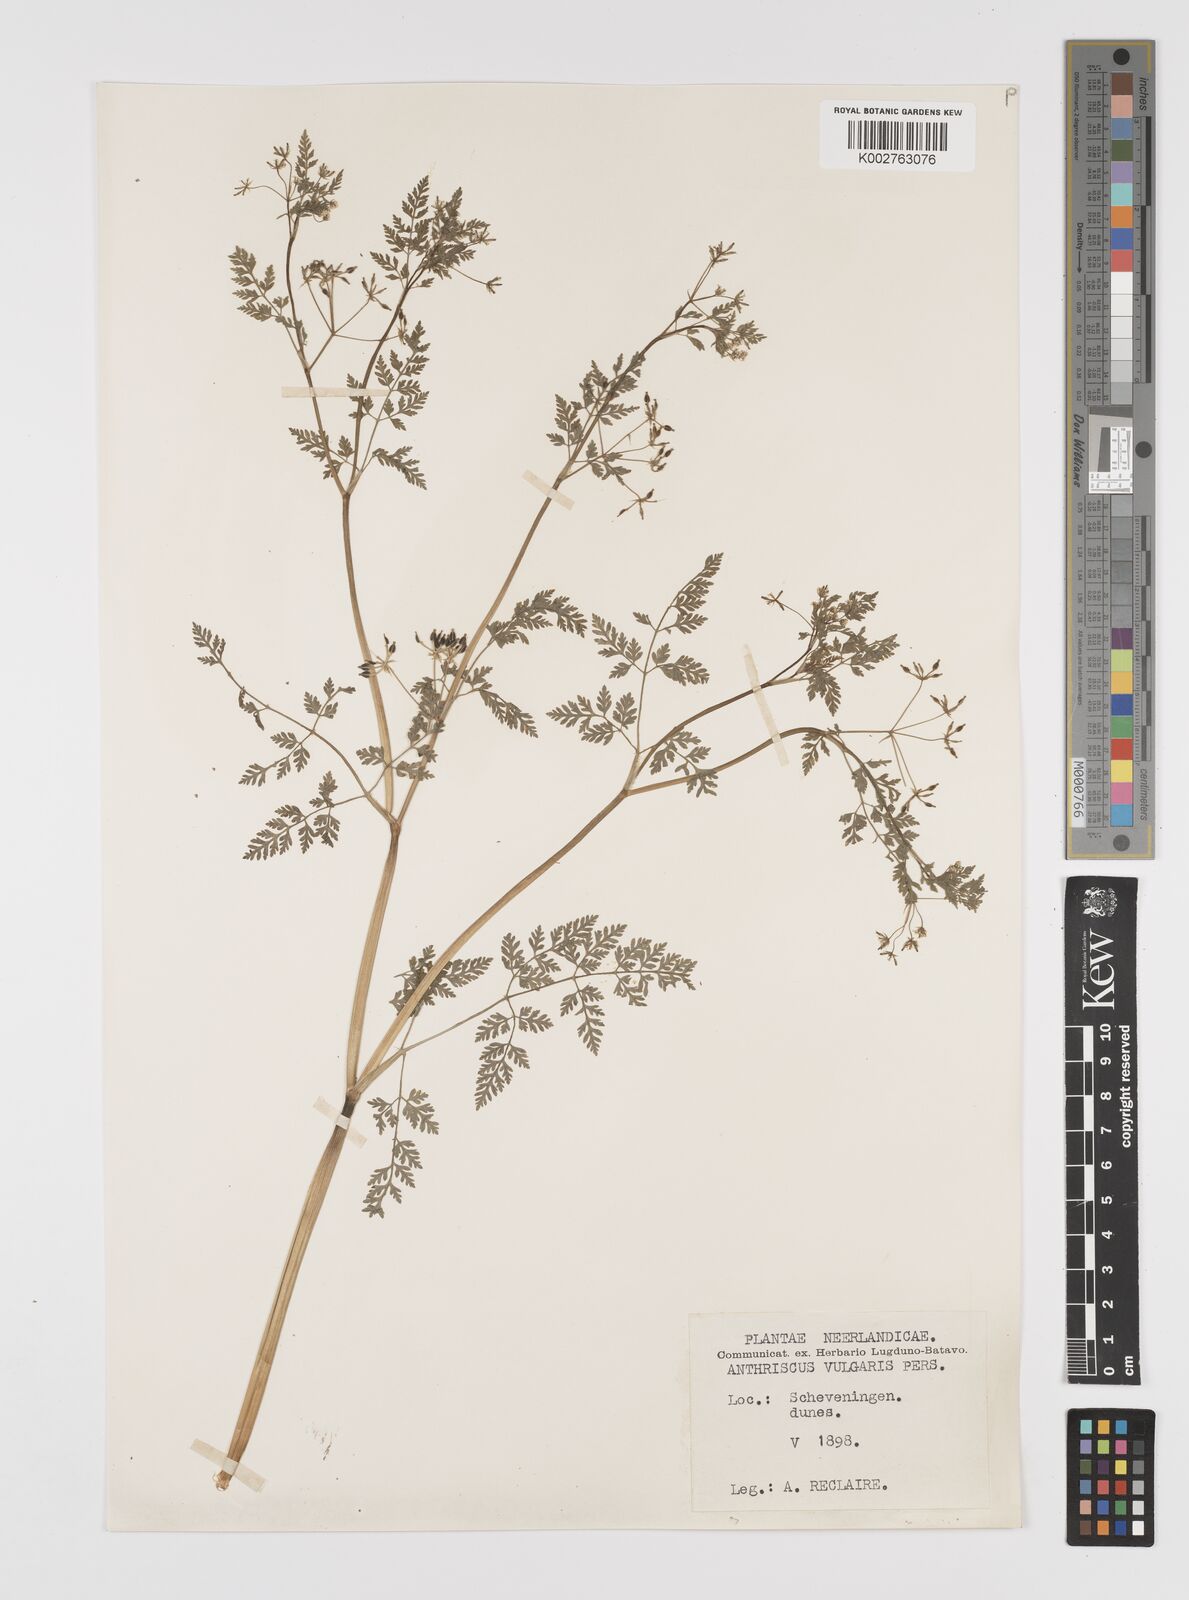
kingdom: Plantae
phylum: Tracheophyta
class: Magnoliopsida
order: Apiales
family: Apiaceae
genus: Anthriscus
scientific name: Anthriscus caucalis
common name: Bur chervil
